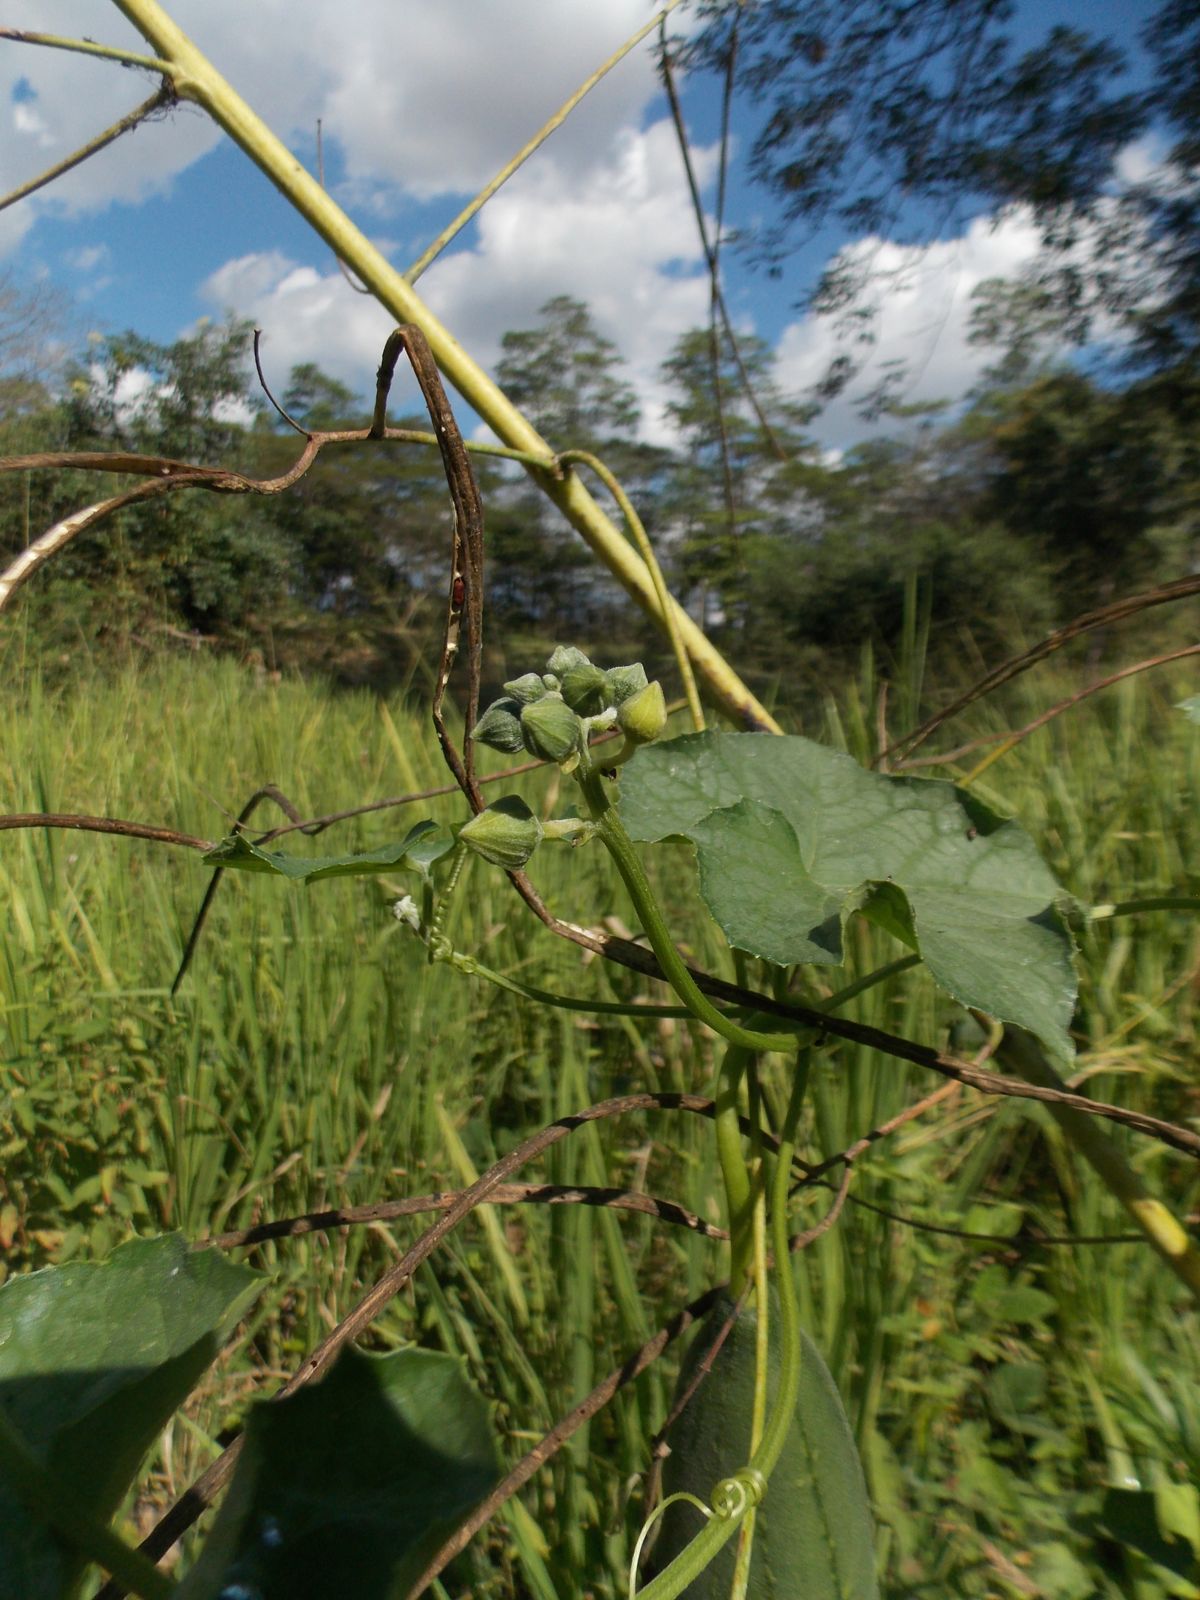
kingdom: Plantae
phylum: Tracheophyta
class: Magnoliopsida
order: Cucurbitales
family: Cucurbitaceae
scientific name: Cucurbitaceae
